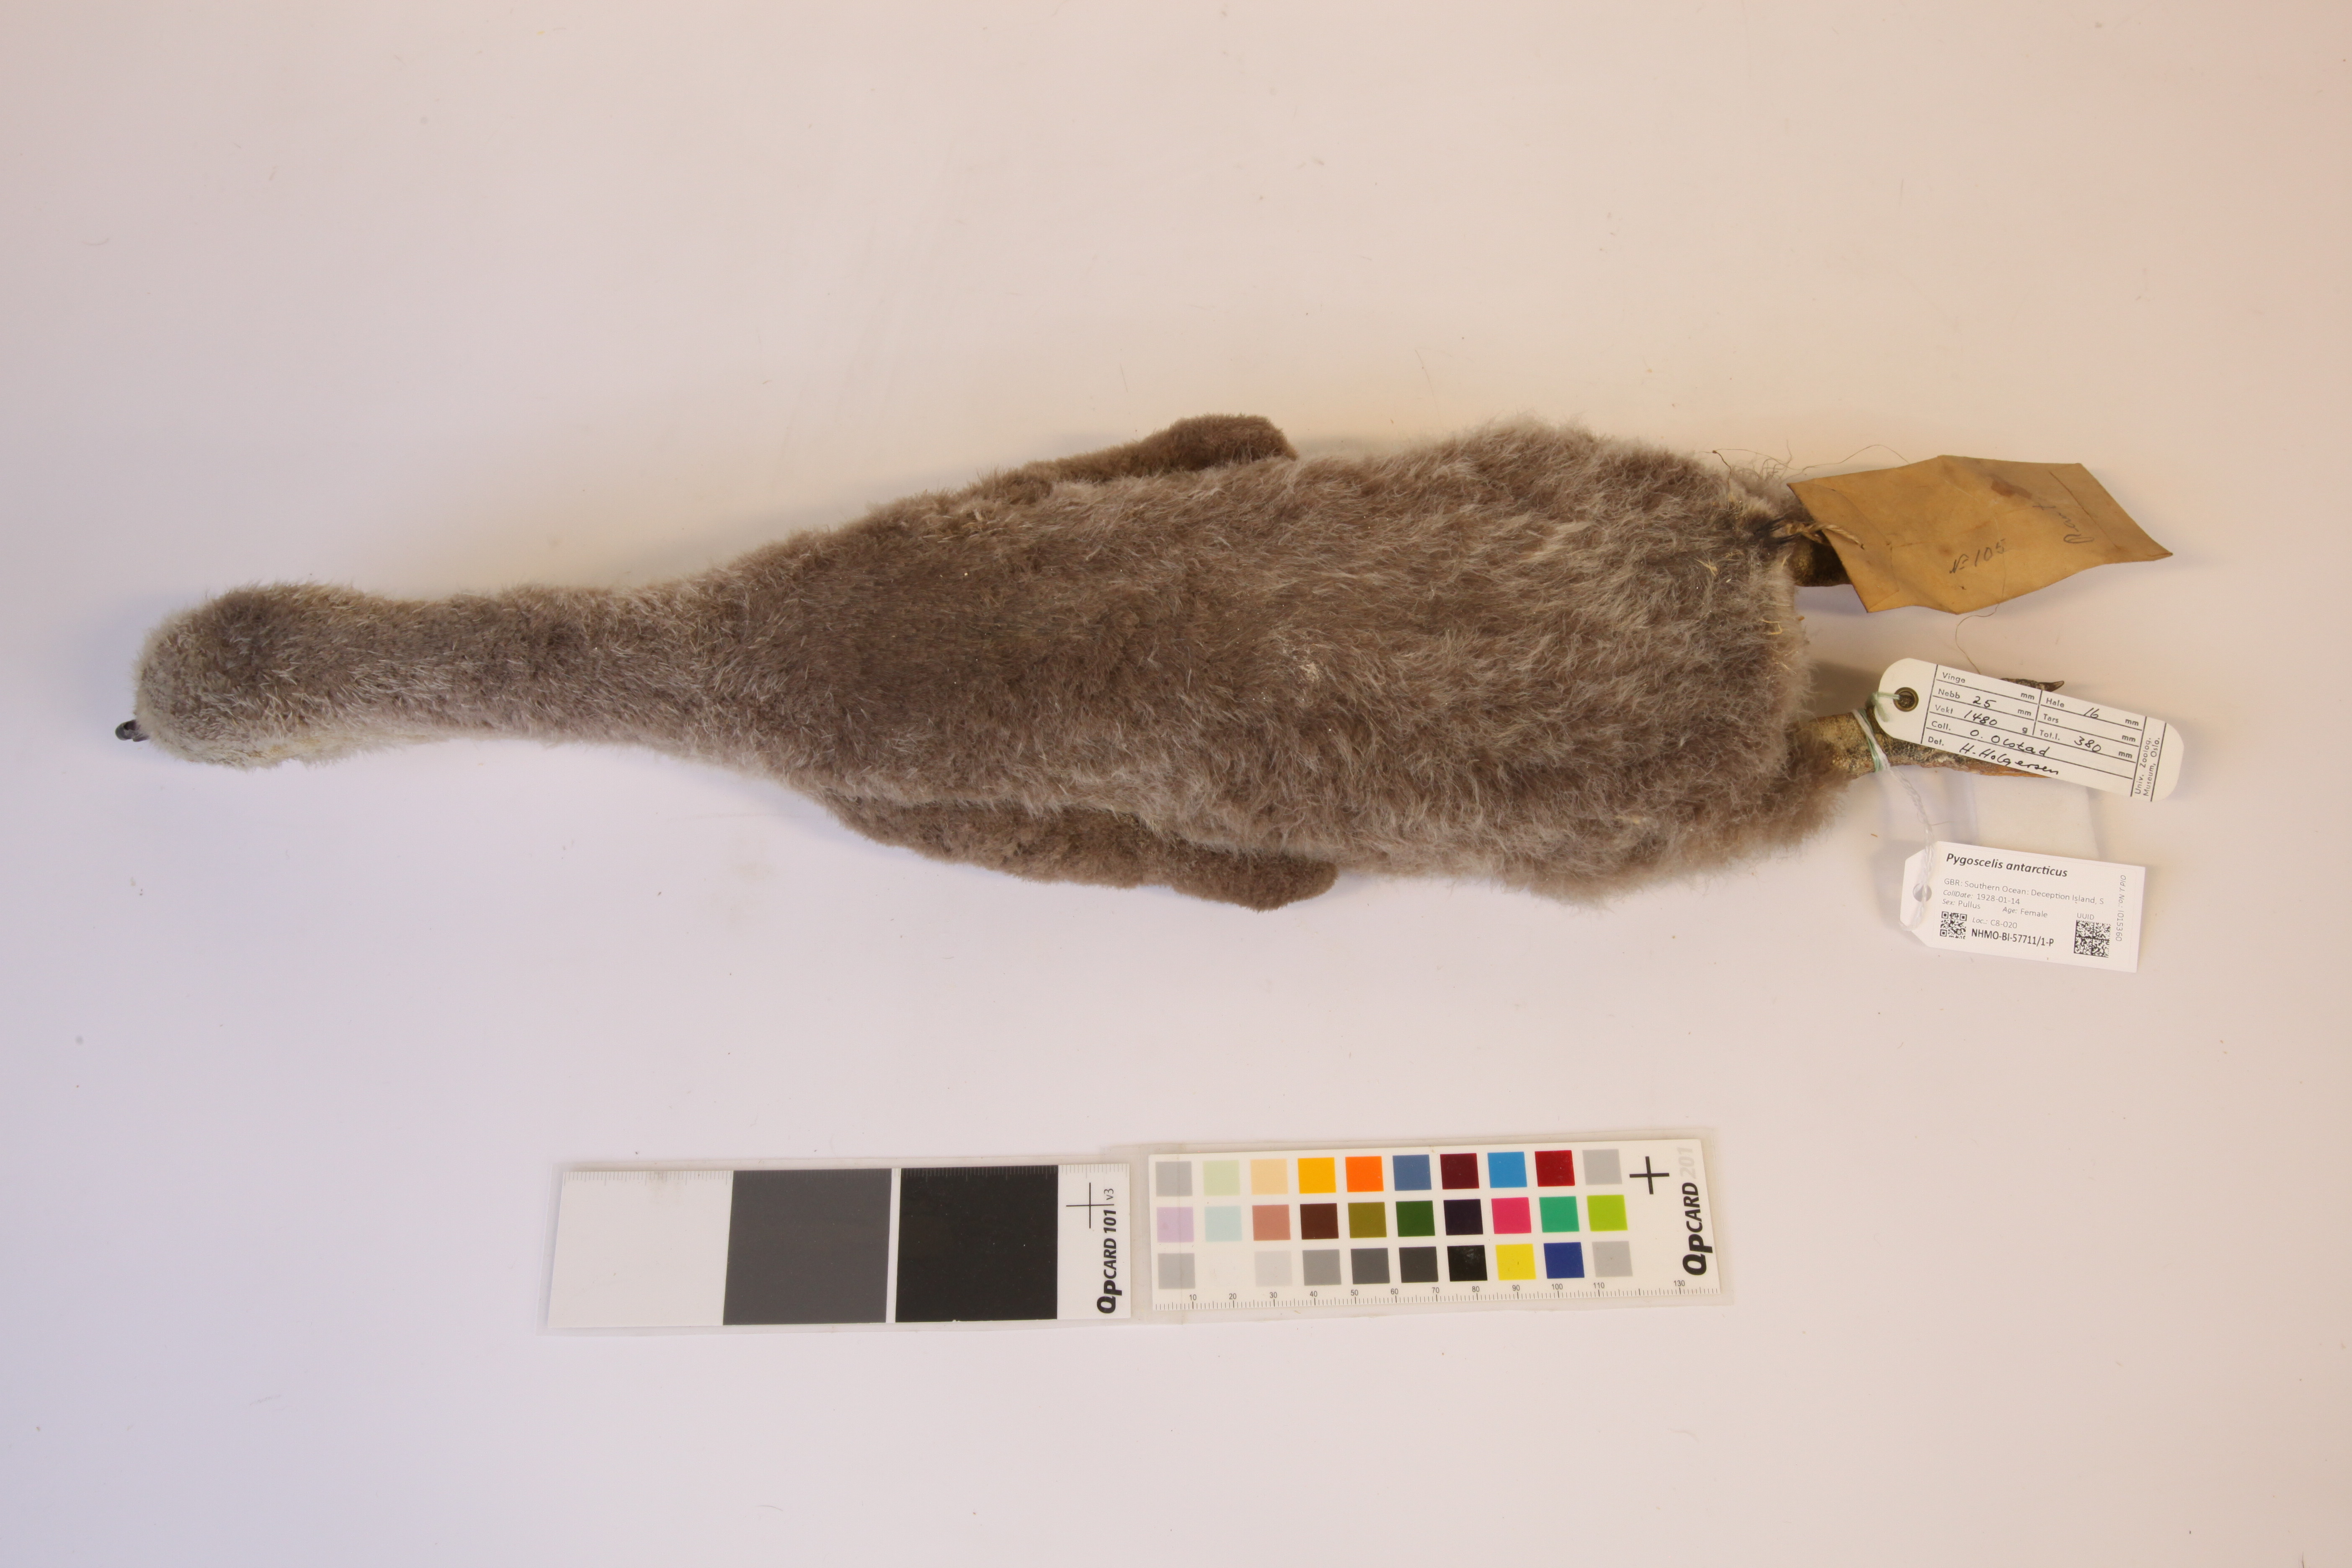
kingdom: Animalia
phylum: Chordata
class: Aves
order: Sphenisciformes
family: Spheniscidae
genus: Pygoscelis
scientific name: Pygoscelis antarcticus
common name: Chinstrap penguin
